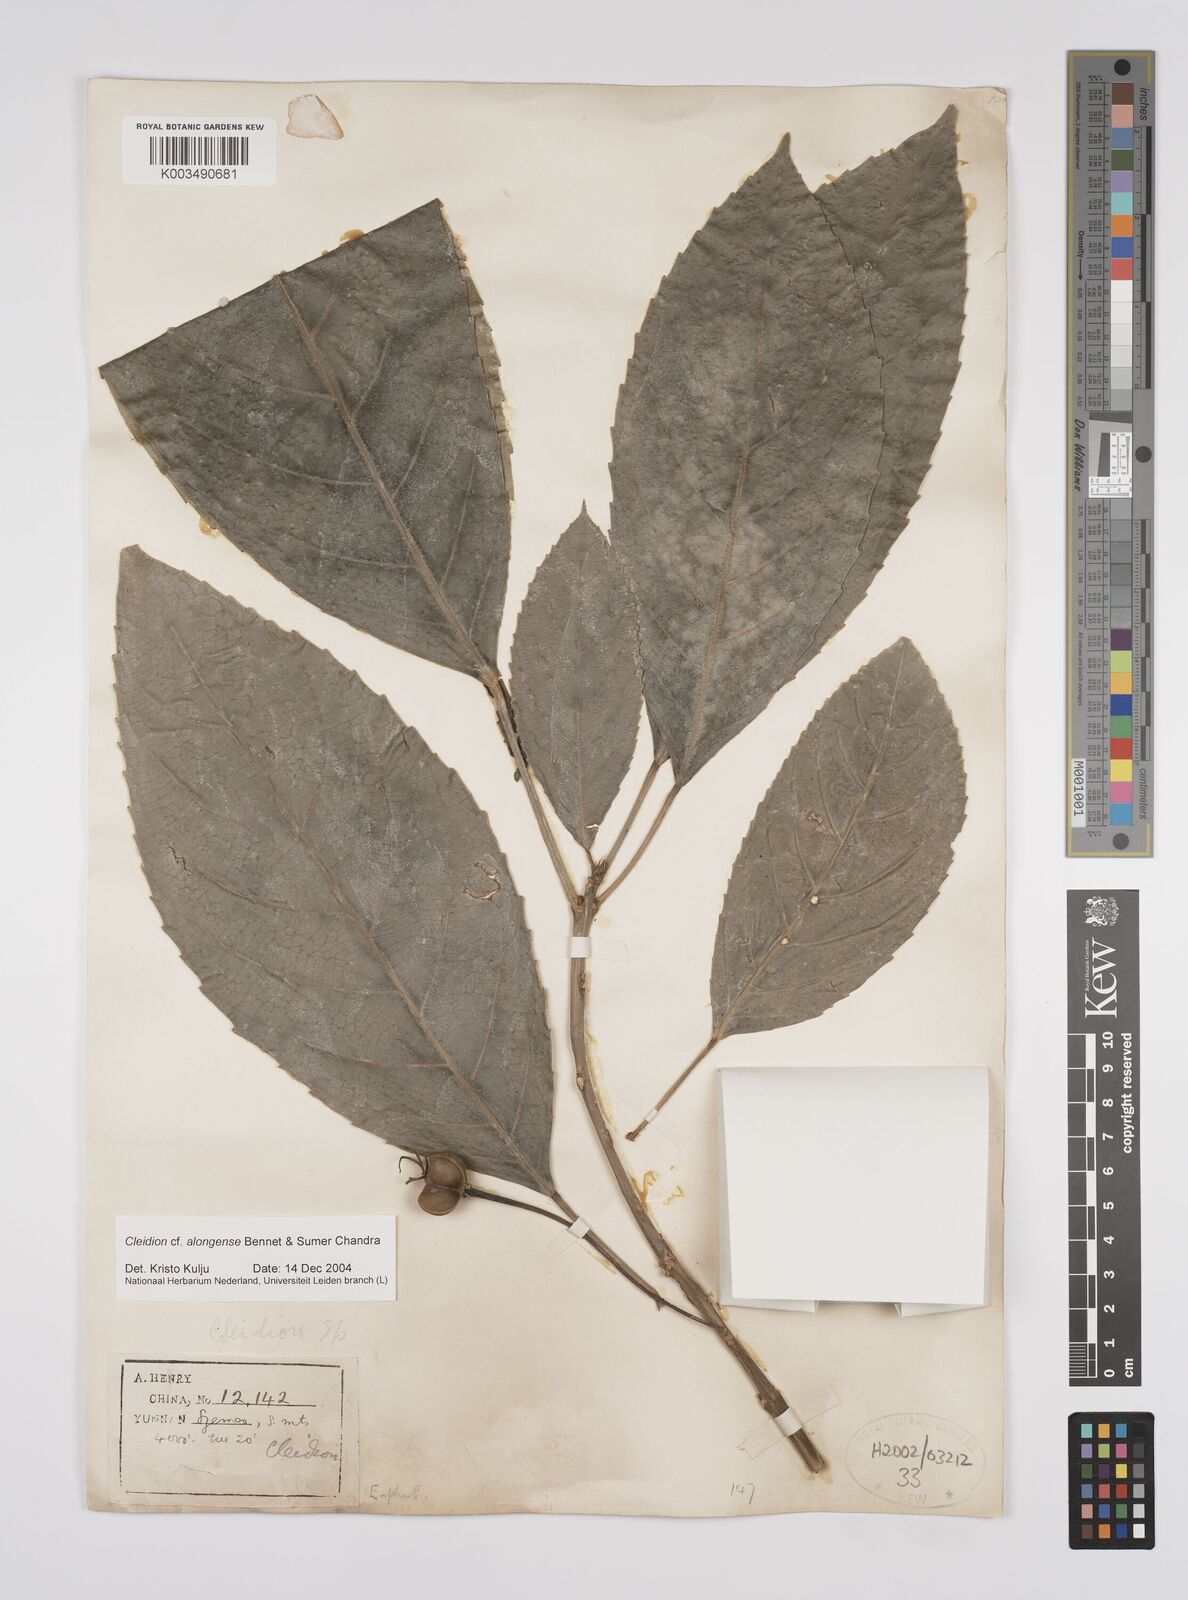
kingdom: Plantae
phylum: Tracheophyta
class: Magnoliopsida
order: Malpighiales
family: Euphorbiaceae
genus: Cleidion
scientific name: Cleidion javanicum
